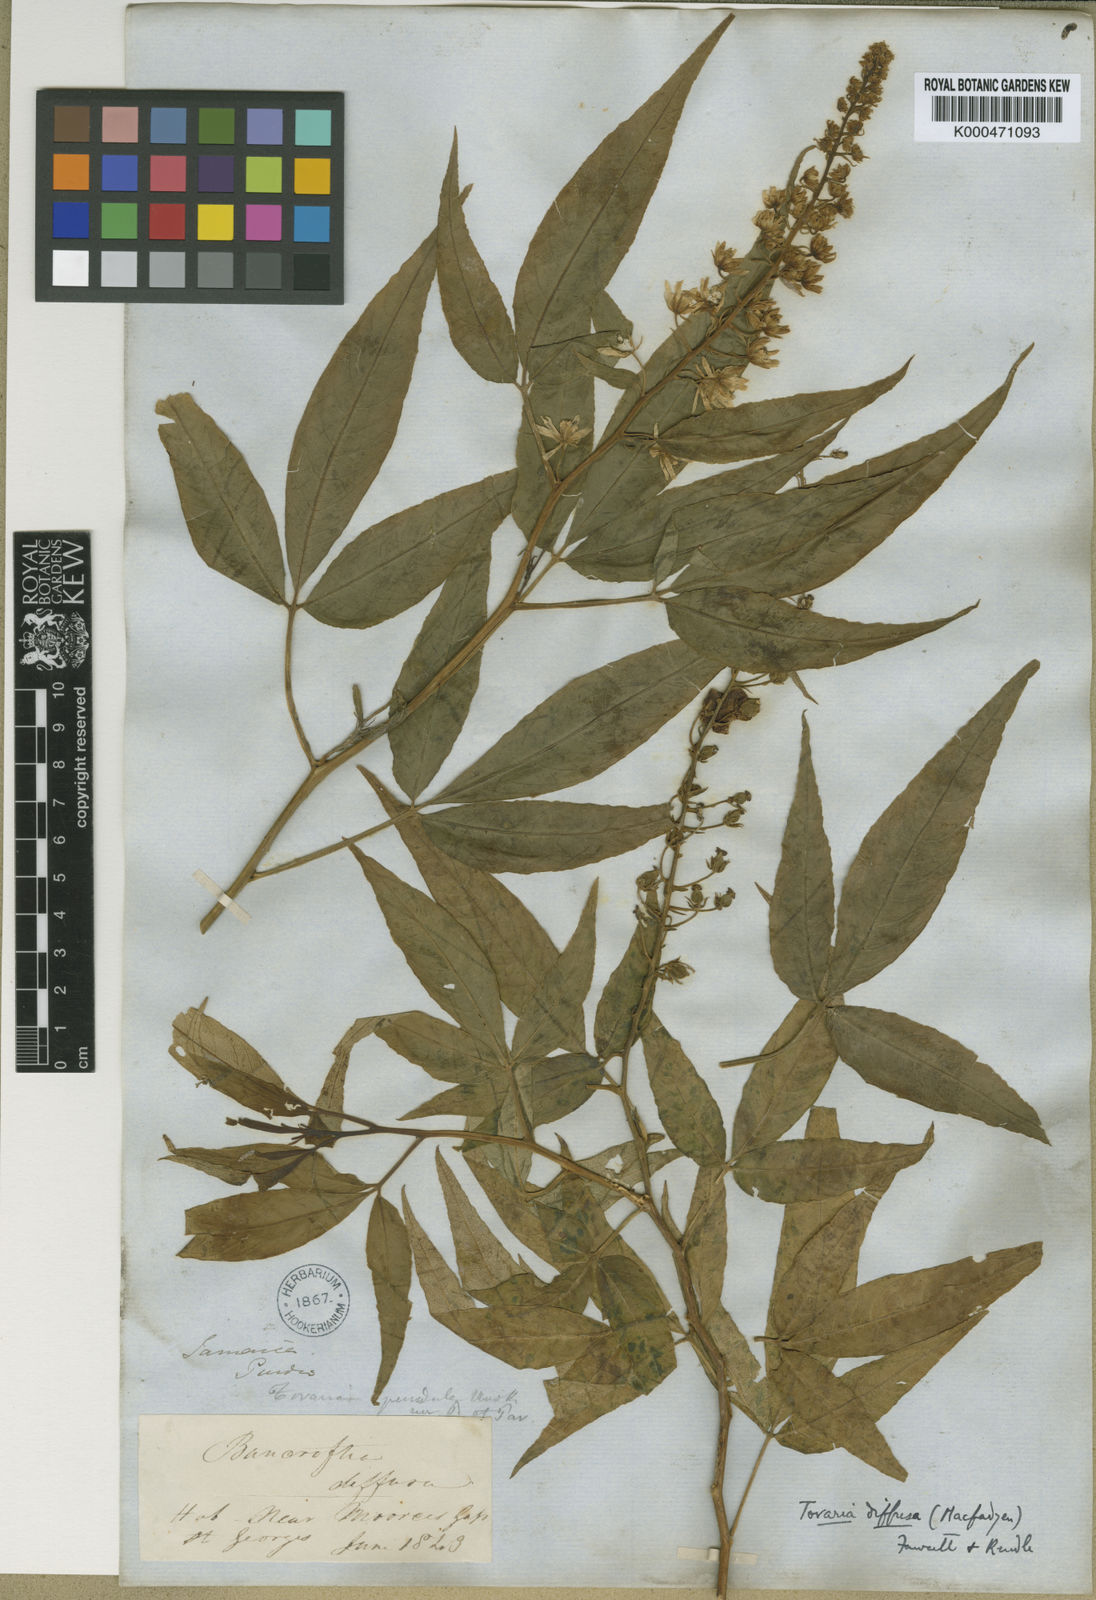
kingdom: Plantae
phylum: Tracheophyta
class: Magnoliopsida
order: Brassicales
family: Tovariaceae
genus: Tovaria
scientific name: Tovaria diffusa
